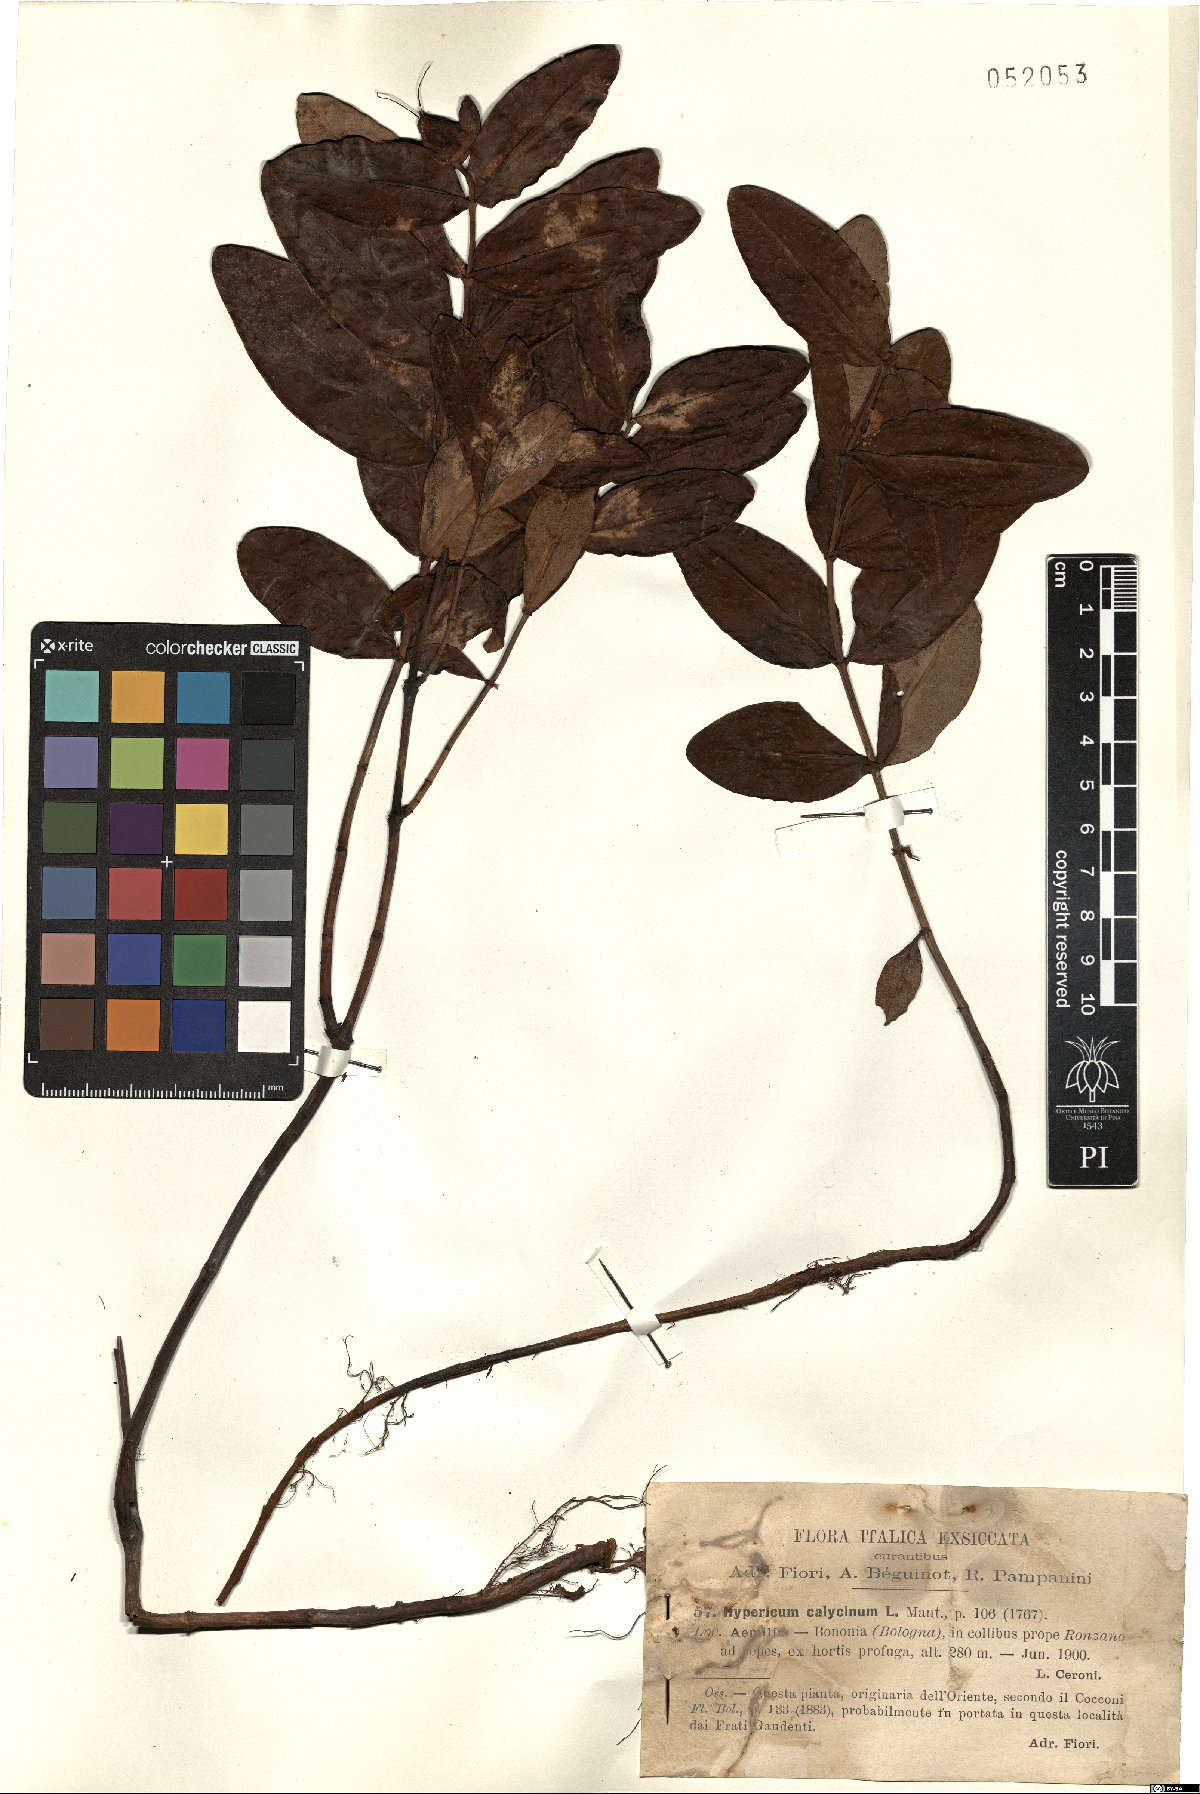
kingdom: Plantae
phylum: Tracheophyta
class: Magnoliopsida
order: Malpighiales
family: Hypericaceae
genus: Hypericum
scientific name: Hypericum calycinum
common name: Rose-of-sharon
